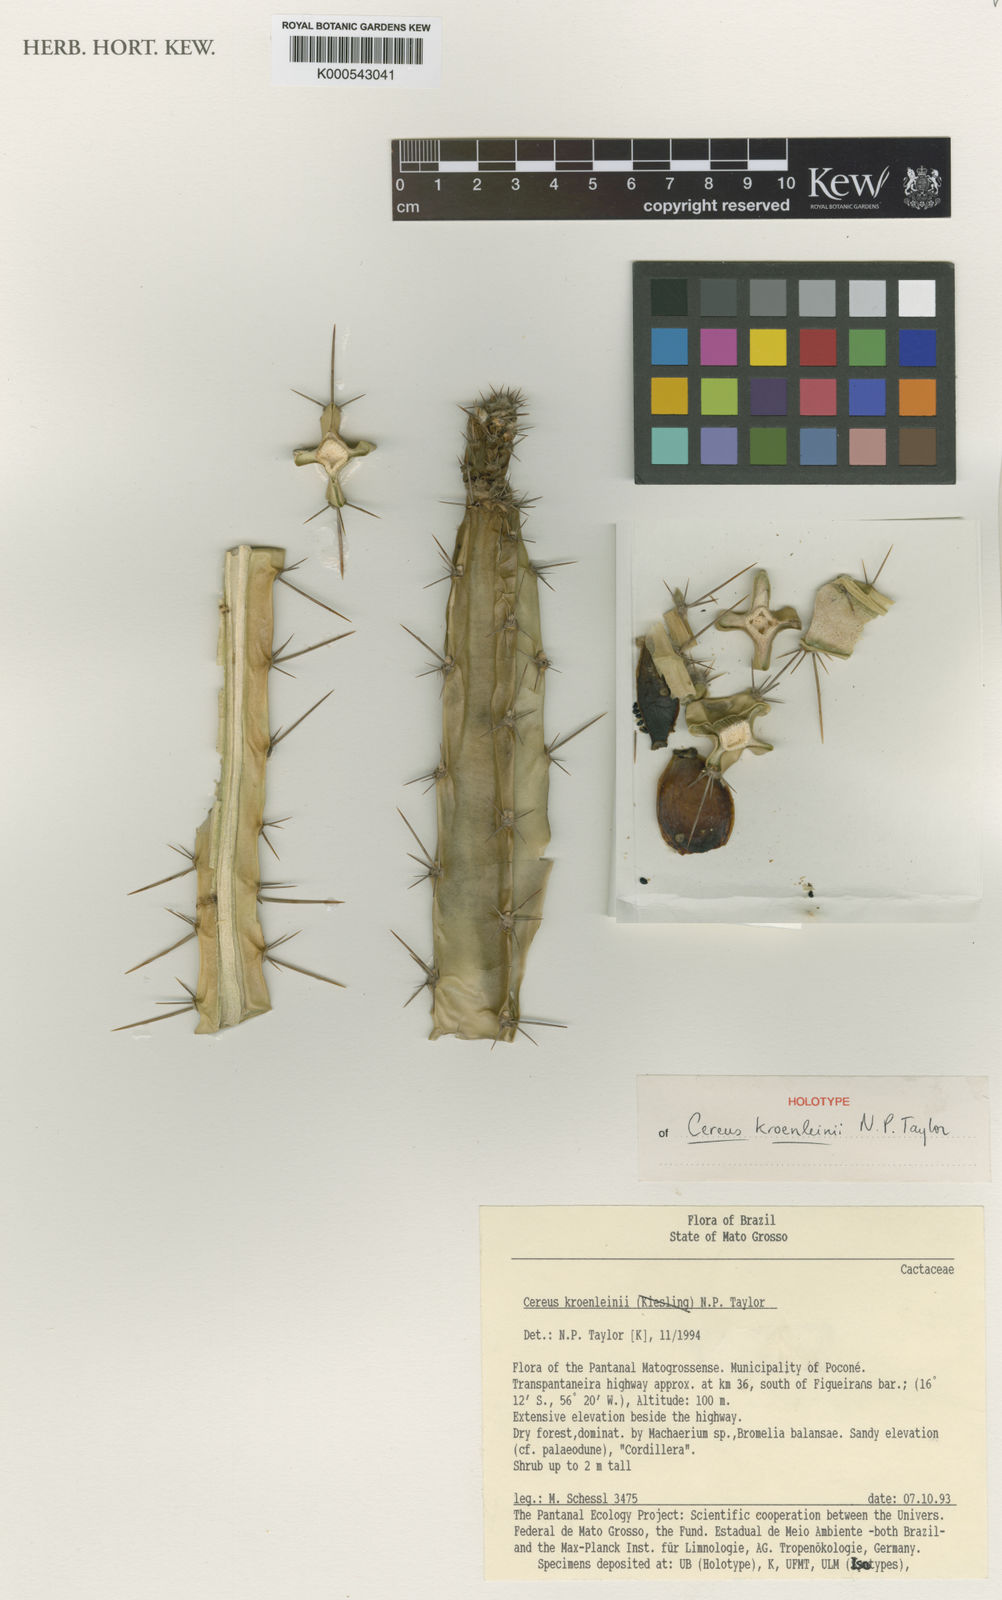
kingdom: Plantae
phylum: Tracheophyta
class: Magnoliopsida
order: Caryophyllales
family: Cactaceae
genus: Cereus
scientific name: Cereus phatnospermus
